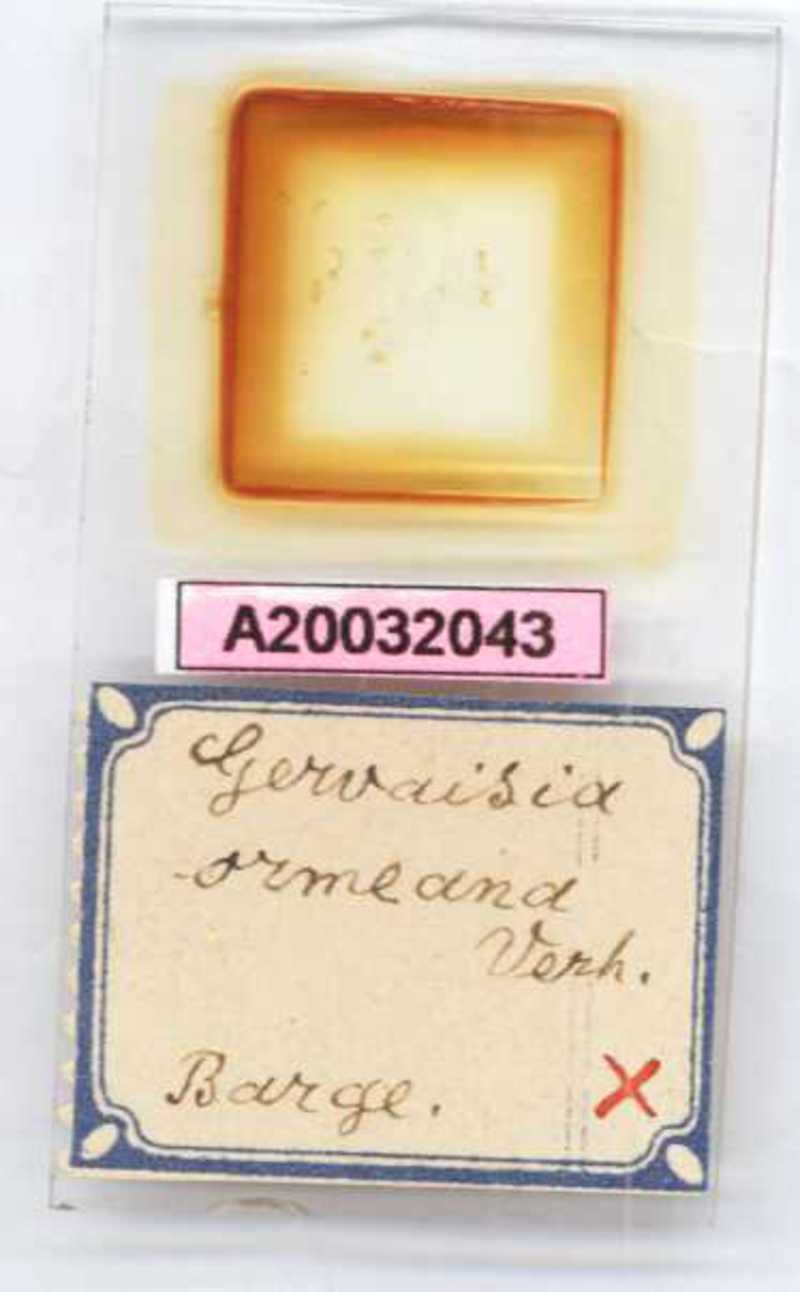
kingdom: Animalia
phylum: Arthropoda
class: Diplopoda
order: Glomerida
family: Glomeridae
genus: Trachysphaera
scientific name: Trachysphaera ormeana
